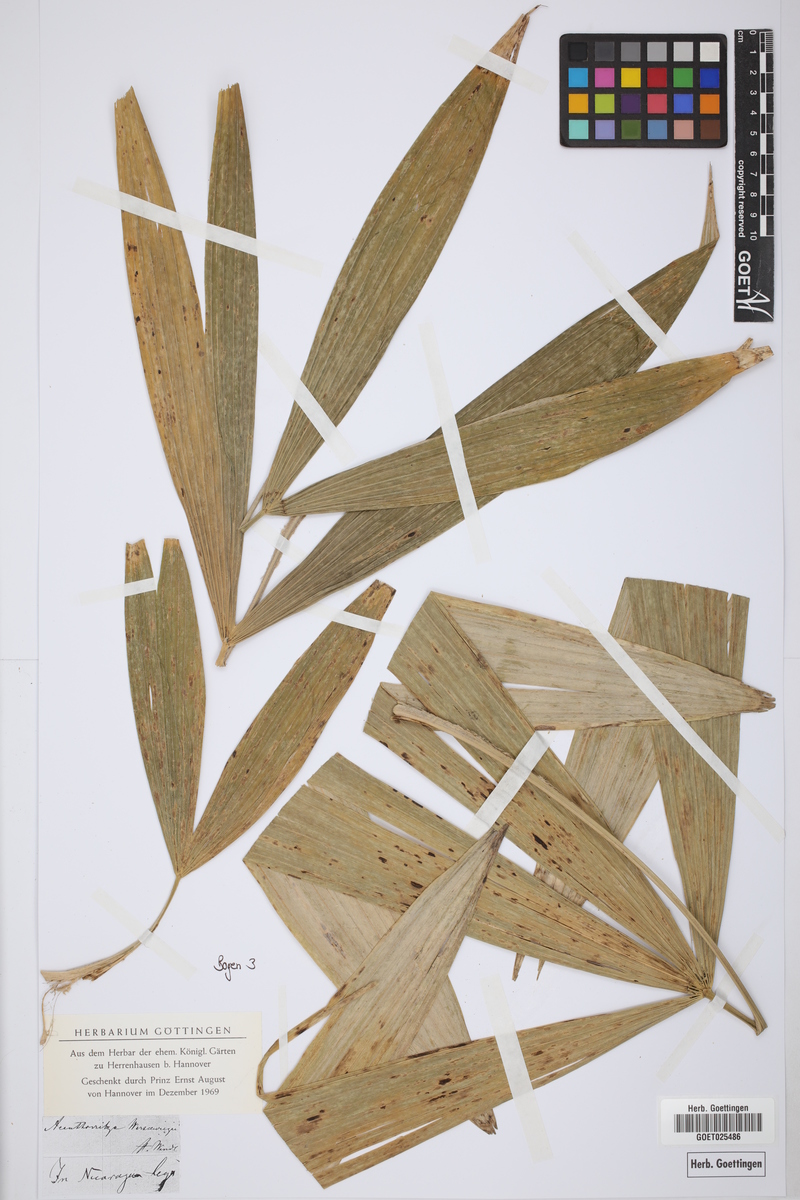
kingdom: Plantae
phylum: Tracheophyta
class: Liliopsida
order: Arecales
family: Arecaceae
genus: Cryosophila
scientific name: Cryosophila warscewiczii
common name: Root-spine palm
